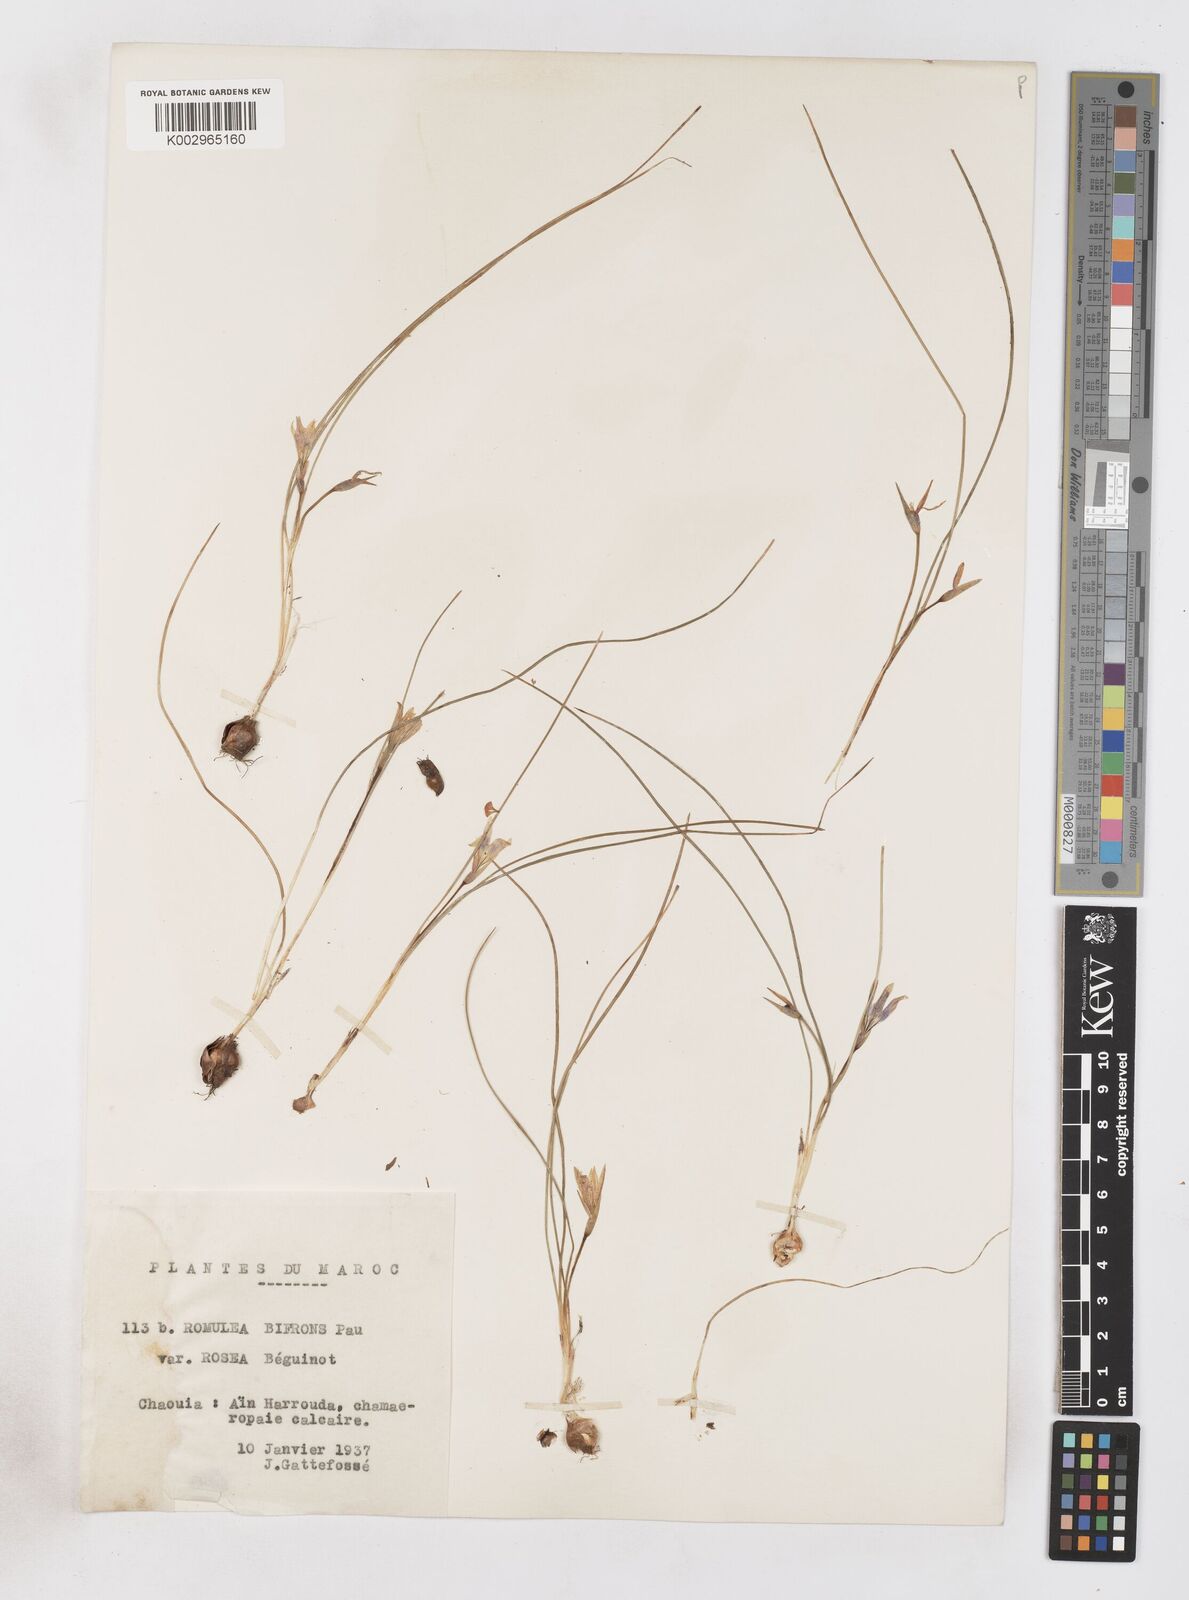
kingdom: Plantae
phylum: Tracheophyta
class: Liliopsida
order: Asparagales
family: Iridaceae
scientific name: Iridaceae
